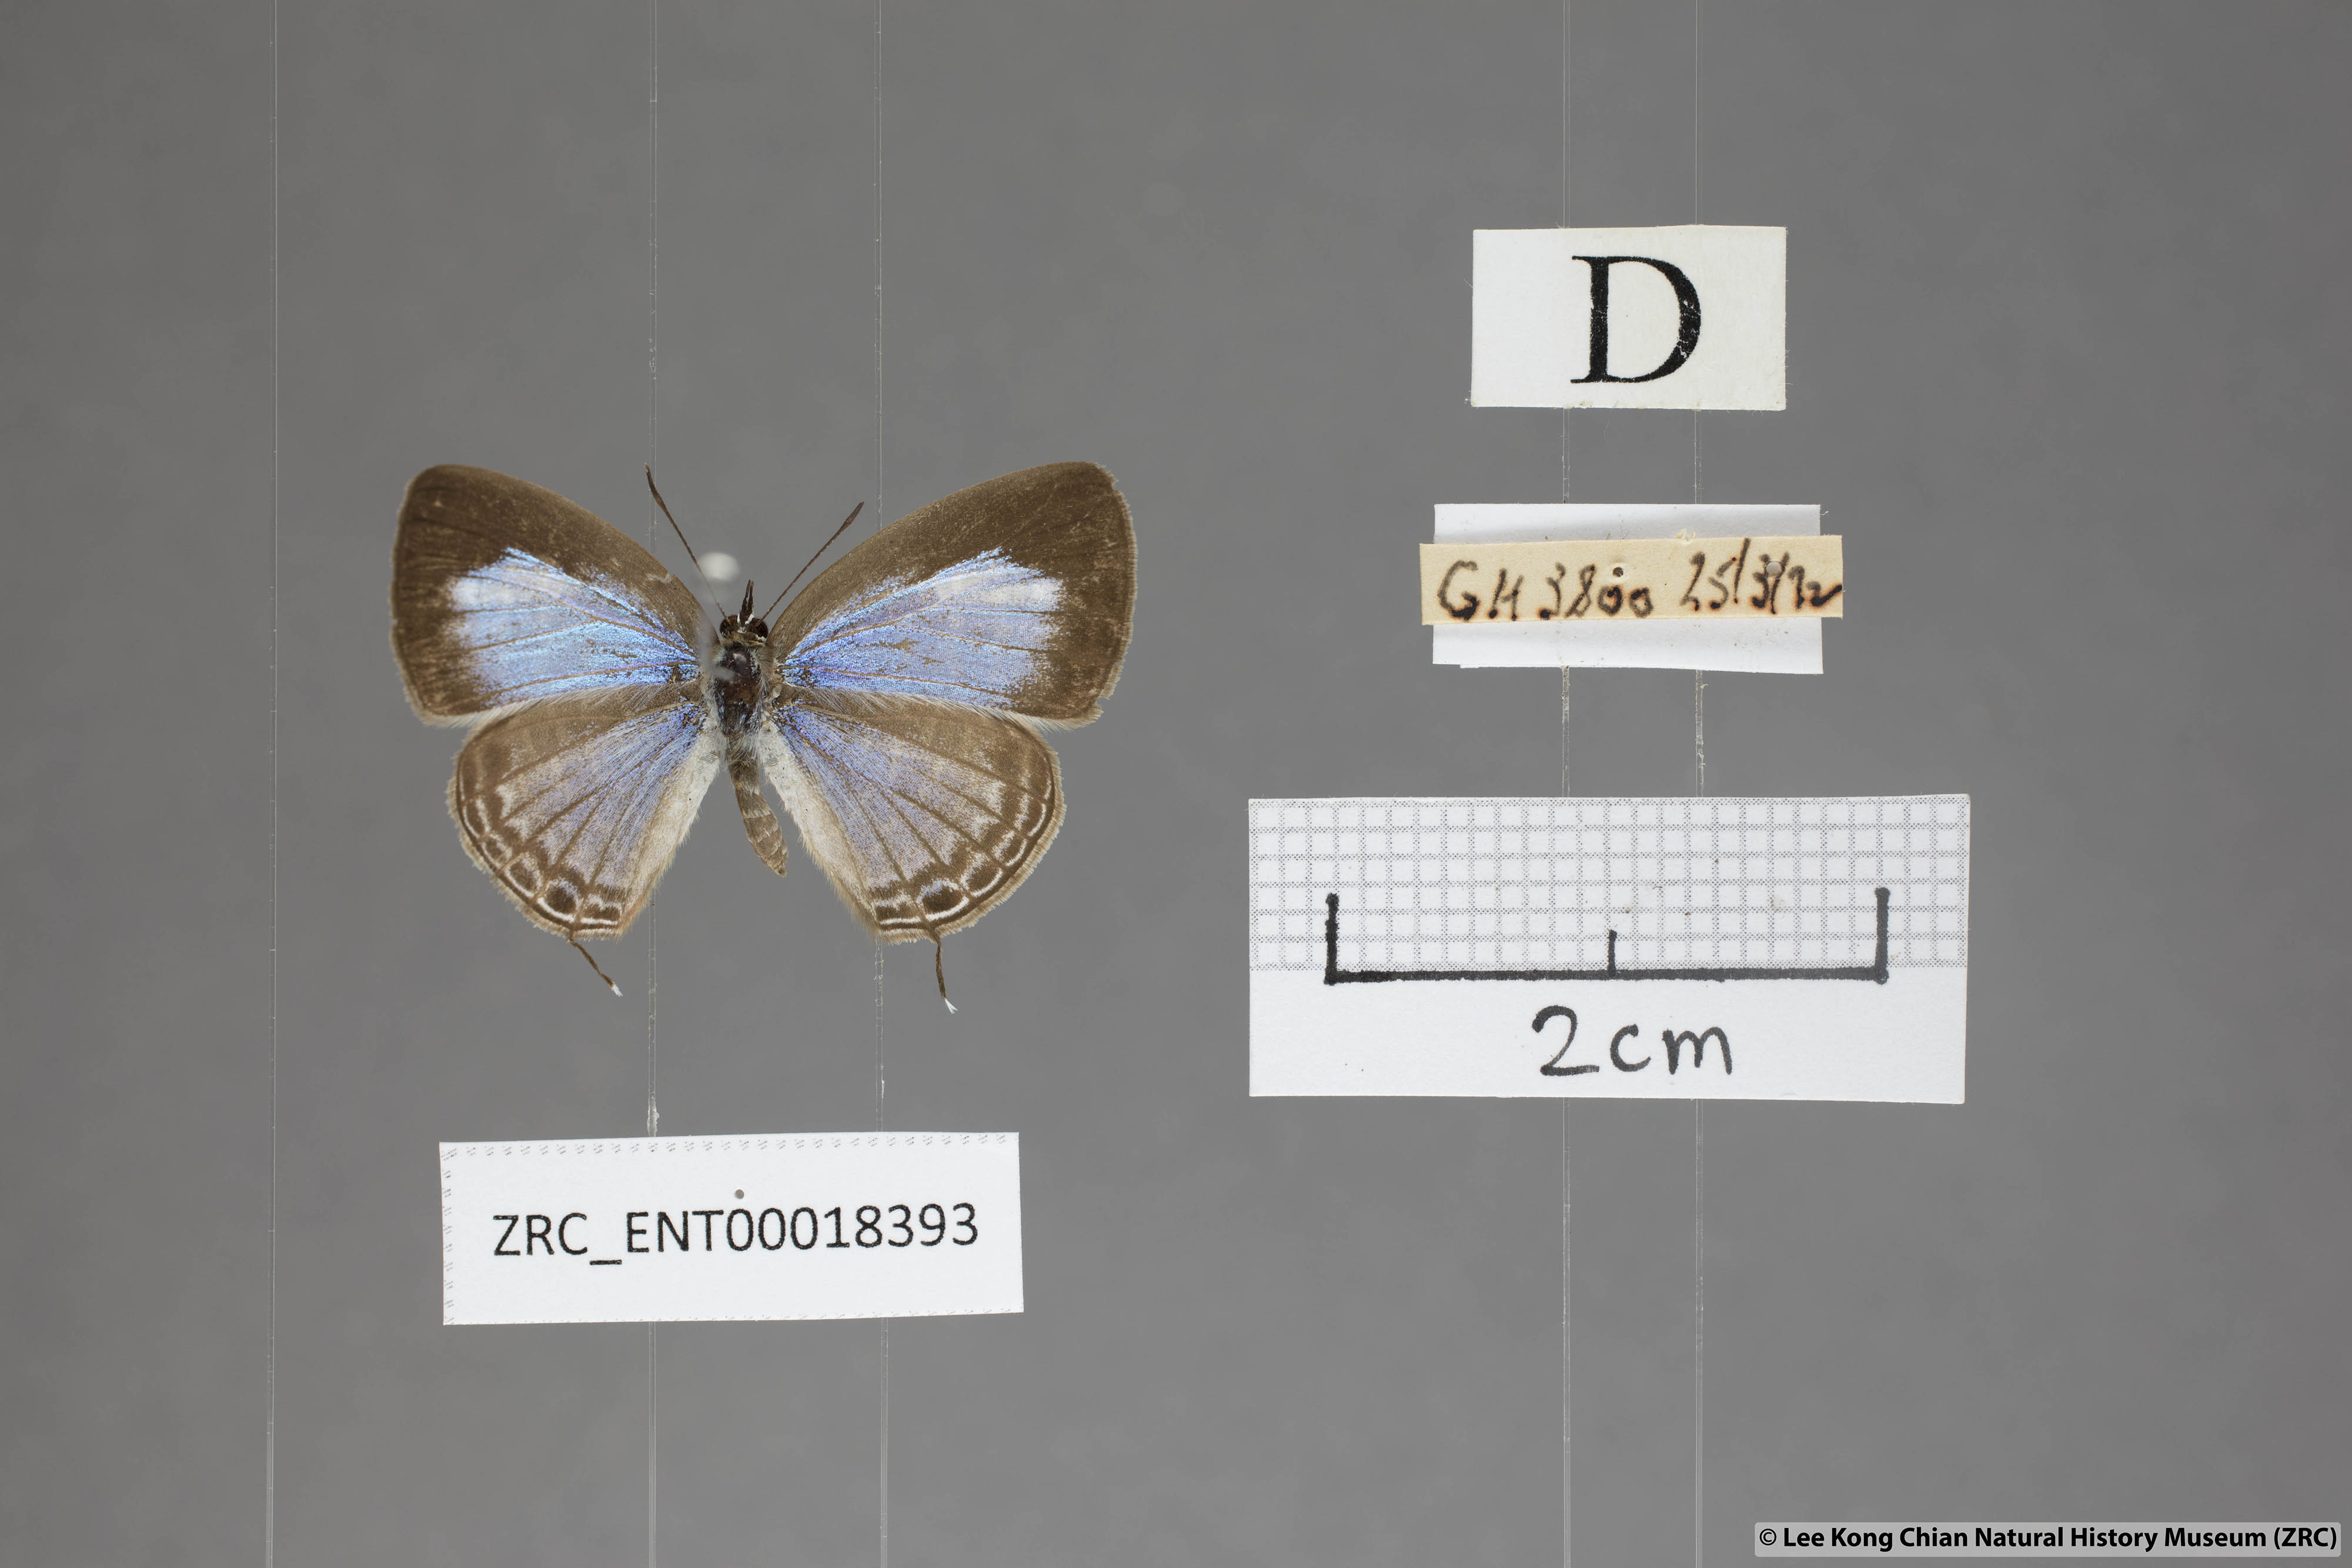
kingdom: Animalia
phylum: Arthropoda
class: Insecta
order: Lepidoptera
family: Lycaenidae
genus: Nacaduba
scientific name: Nacaduba kurava
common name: Transparent 6-line blue
